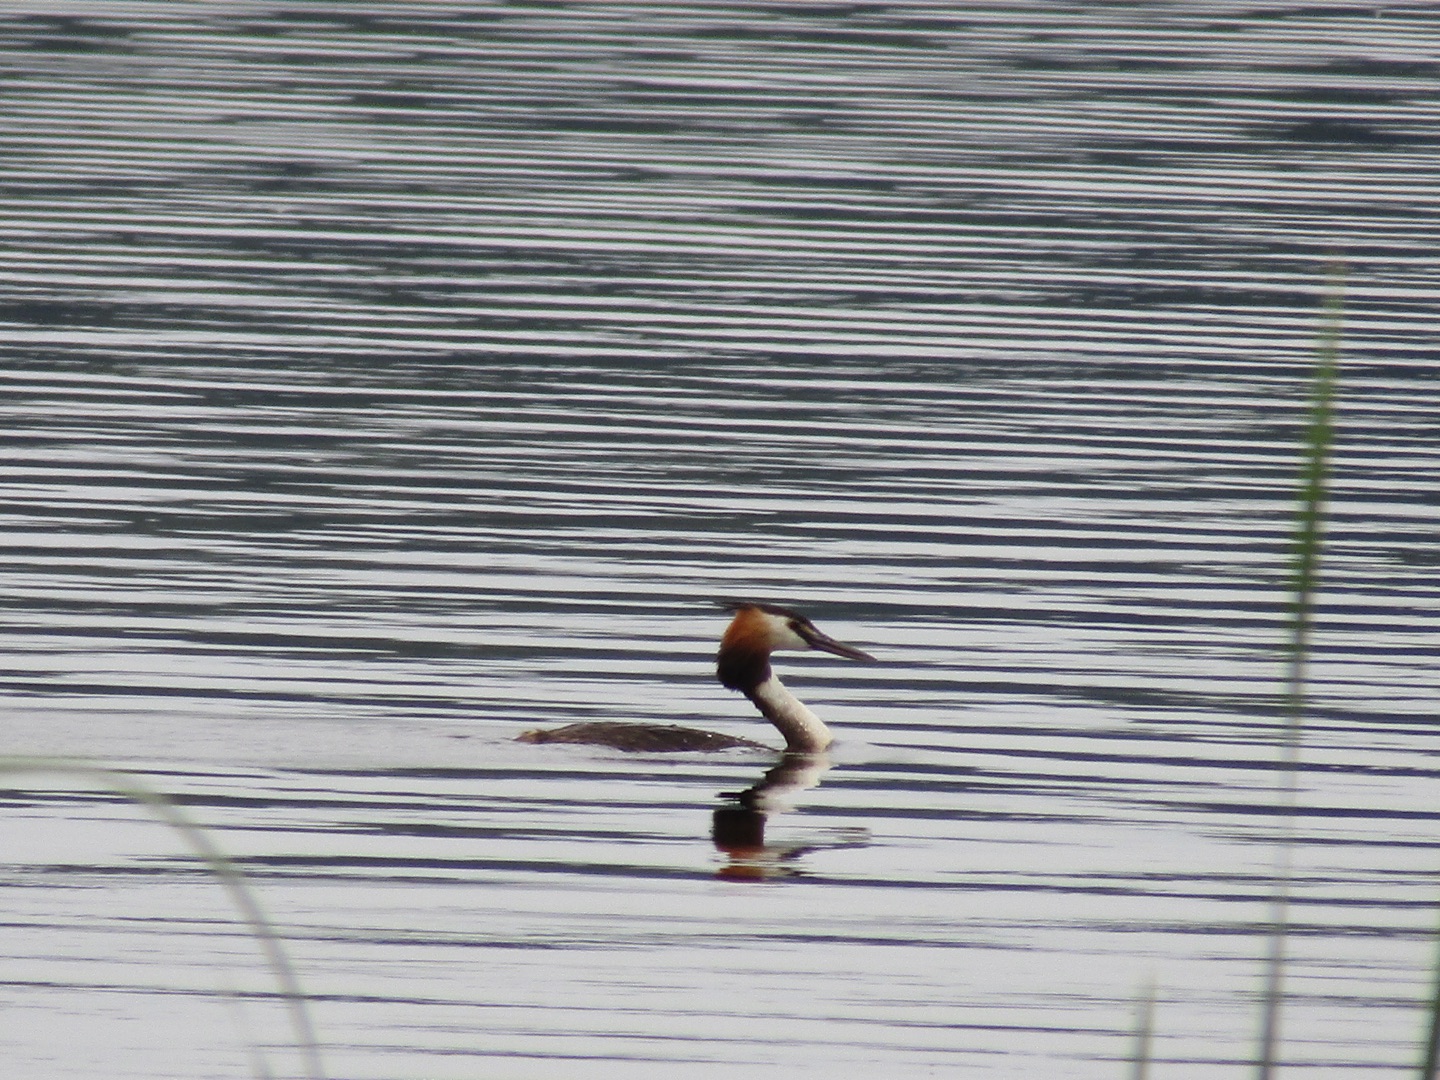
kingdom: Animalia
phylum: Chordata
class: Aves
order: Podicipediformes
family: Podicipedidae
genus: Podiceps
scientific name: Podiceps cristatus
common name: Toppet lappedykker
